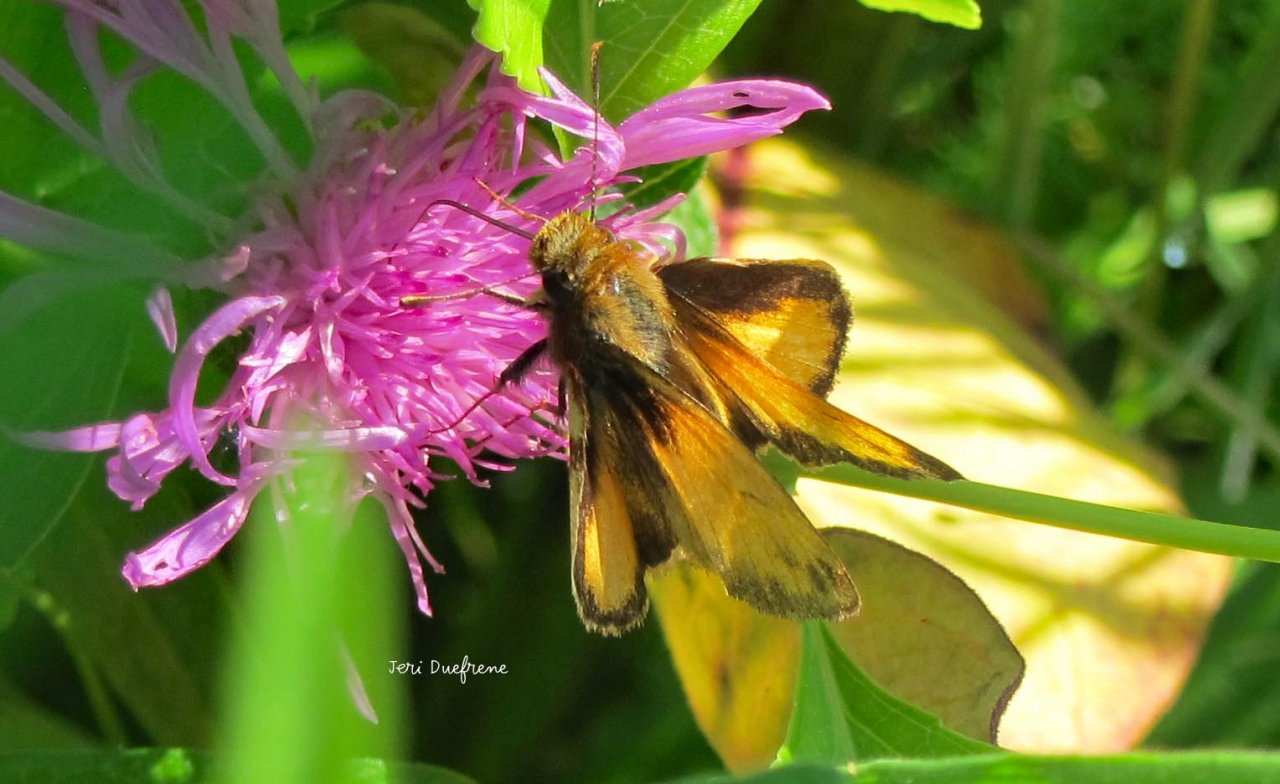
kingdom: Animalia
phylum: Arthropoda
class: Insecta
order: Lepidoptera
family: Hesperiidae
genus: Lon
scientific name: Lon zabulon
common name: Zabulon Skipper
